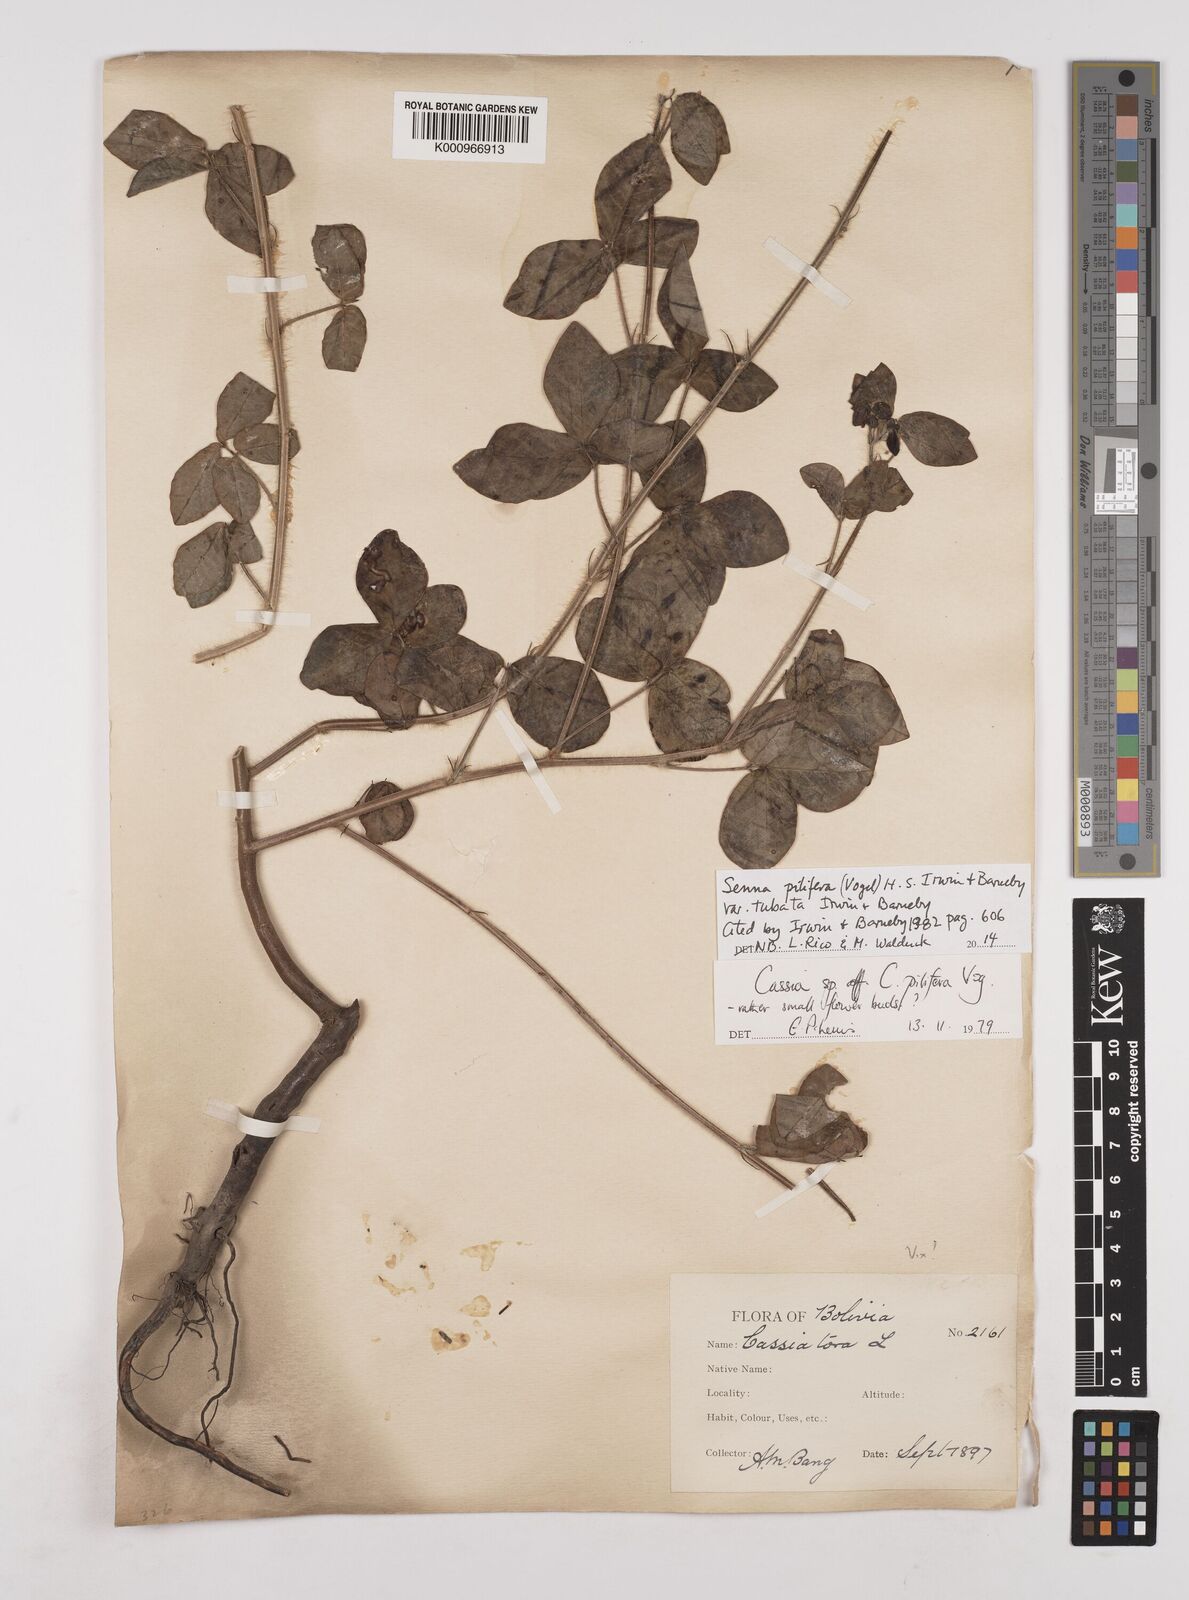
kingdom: Plantae
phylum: Tracheophyta
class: Magnoliopsida
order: Fabales
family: Fabaceae
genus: Senna
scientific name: Senna pilifera
